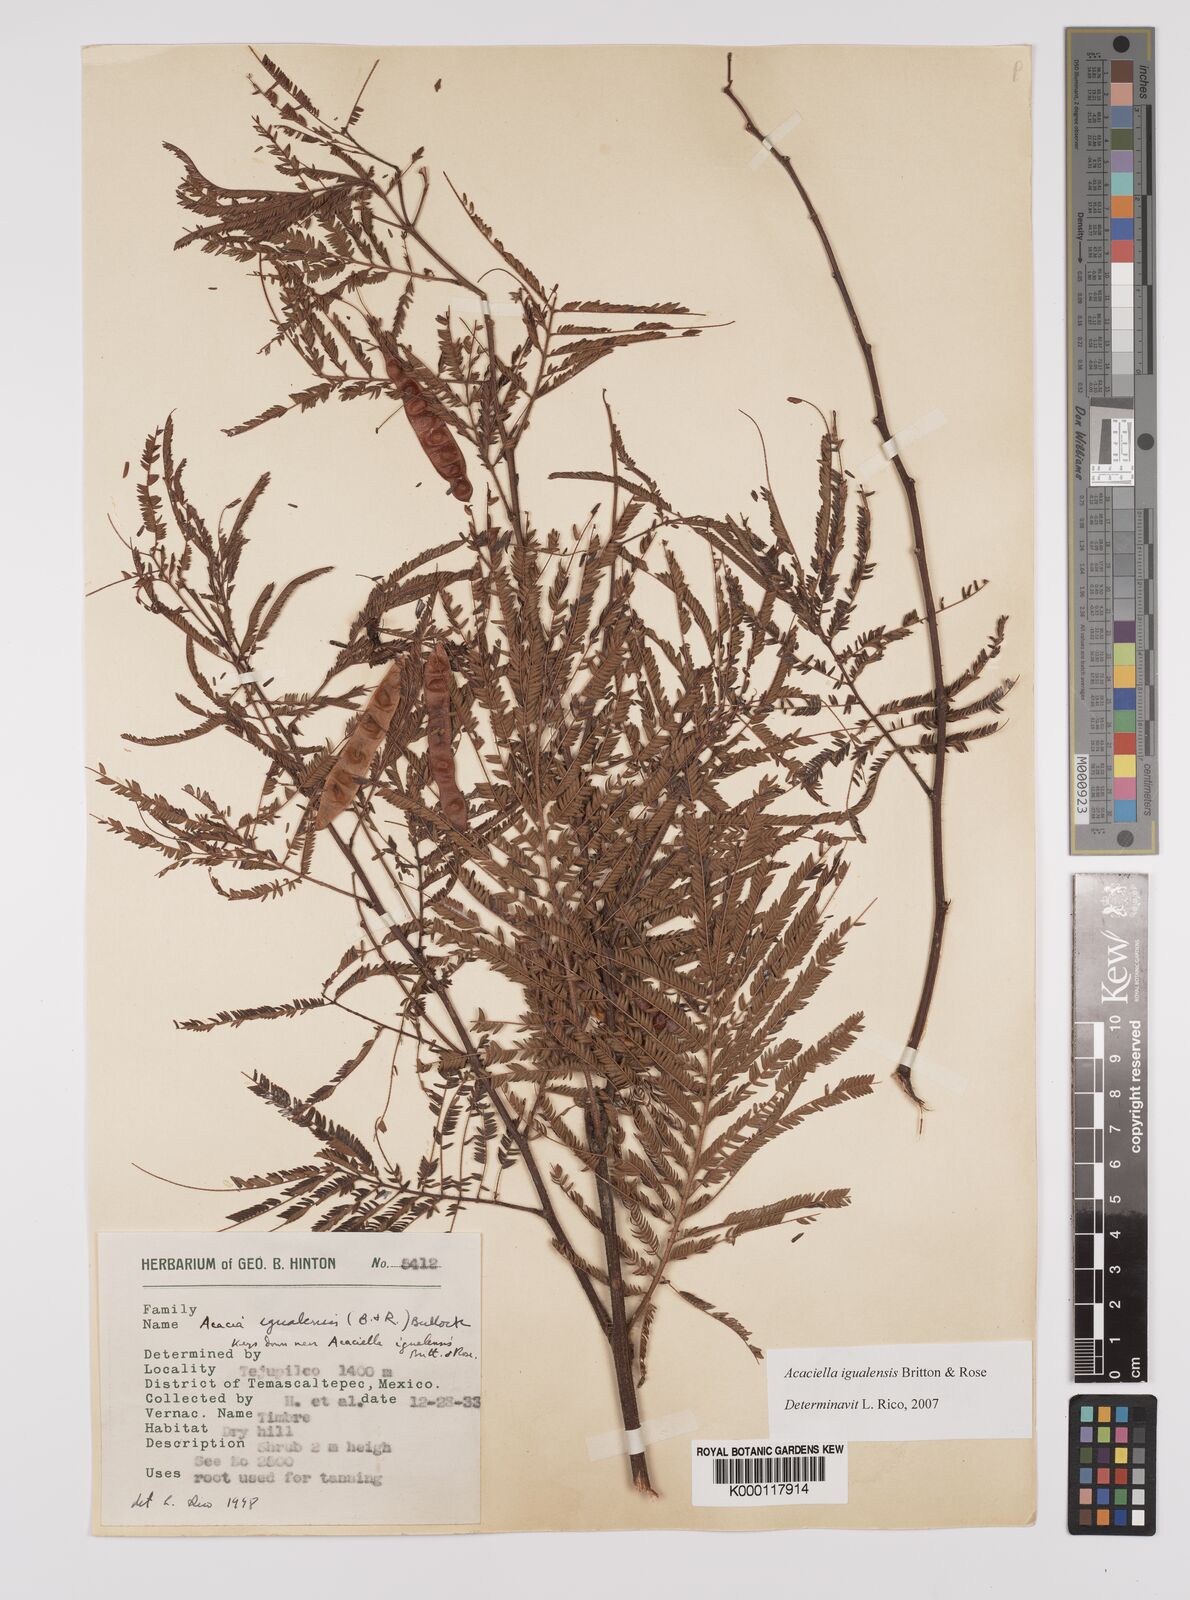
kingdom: Plantae
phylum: Tracheophyta
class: Magnoliopsida
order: Fabales
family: Fabaceae
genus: Acaciella
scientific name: Acaciella igualensis
